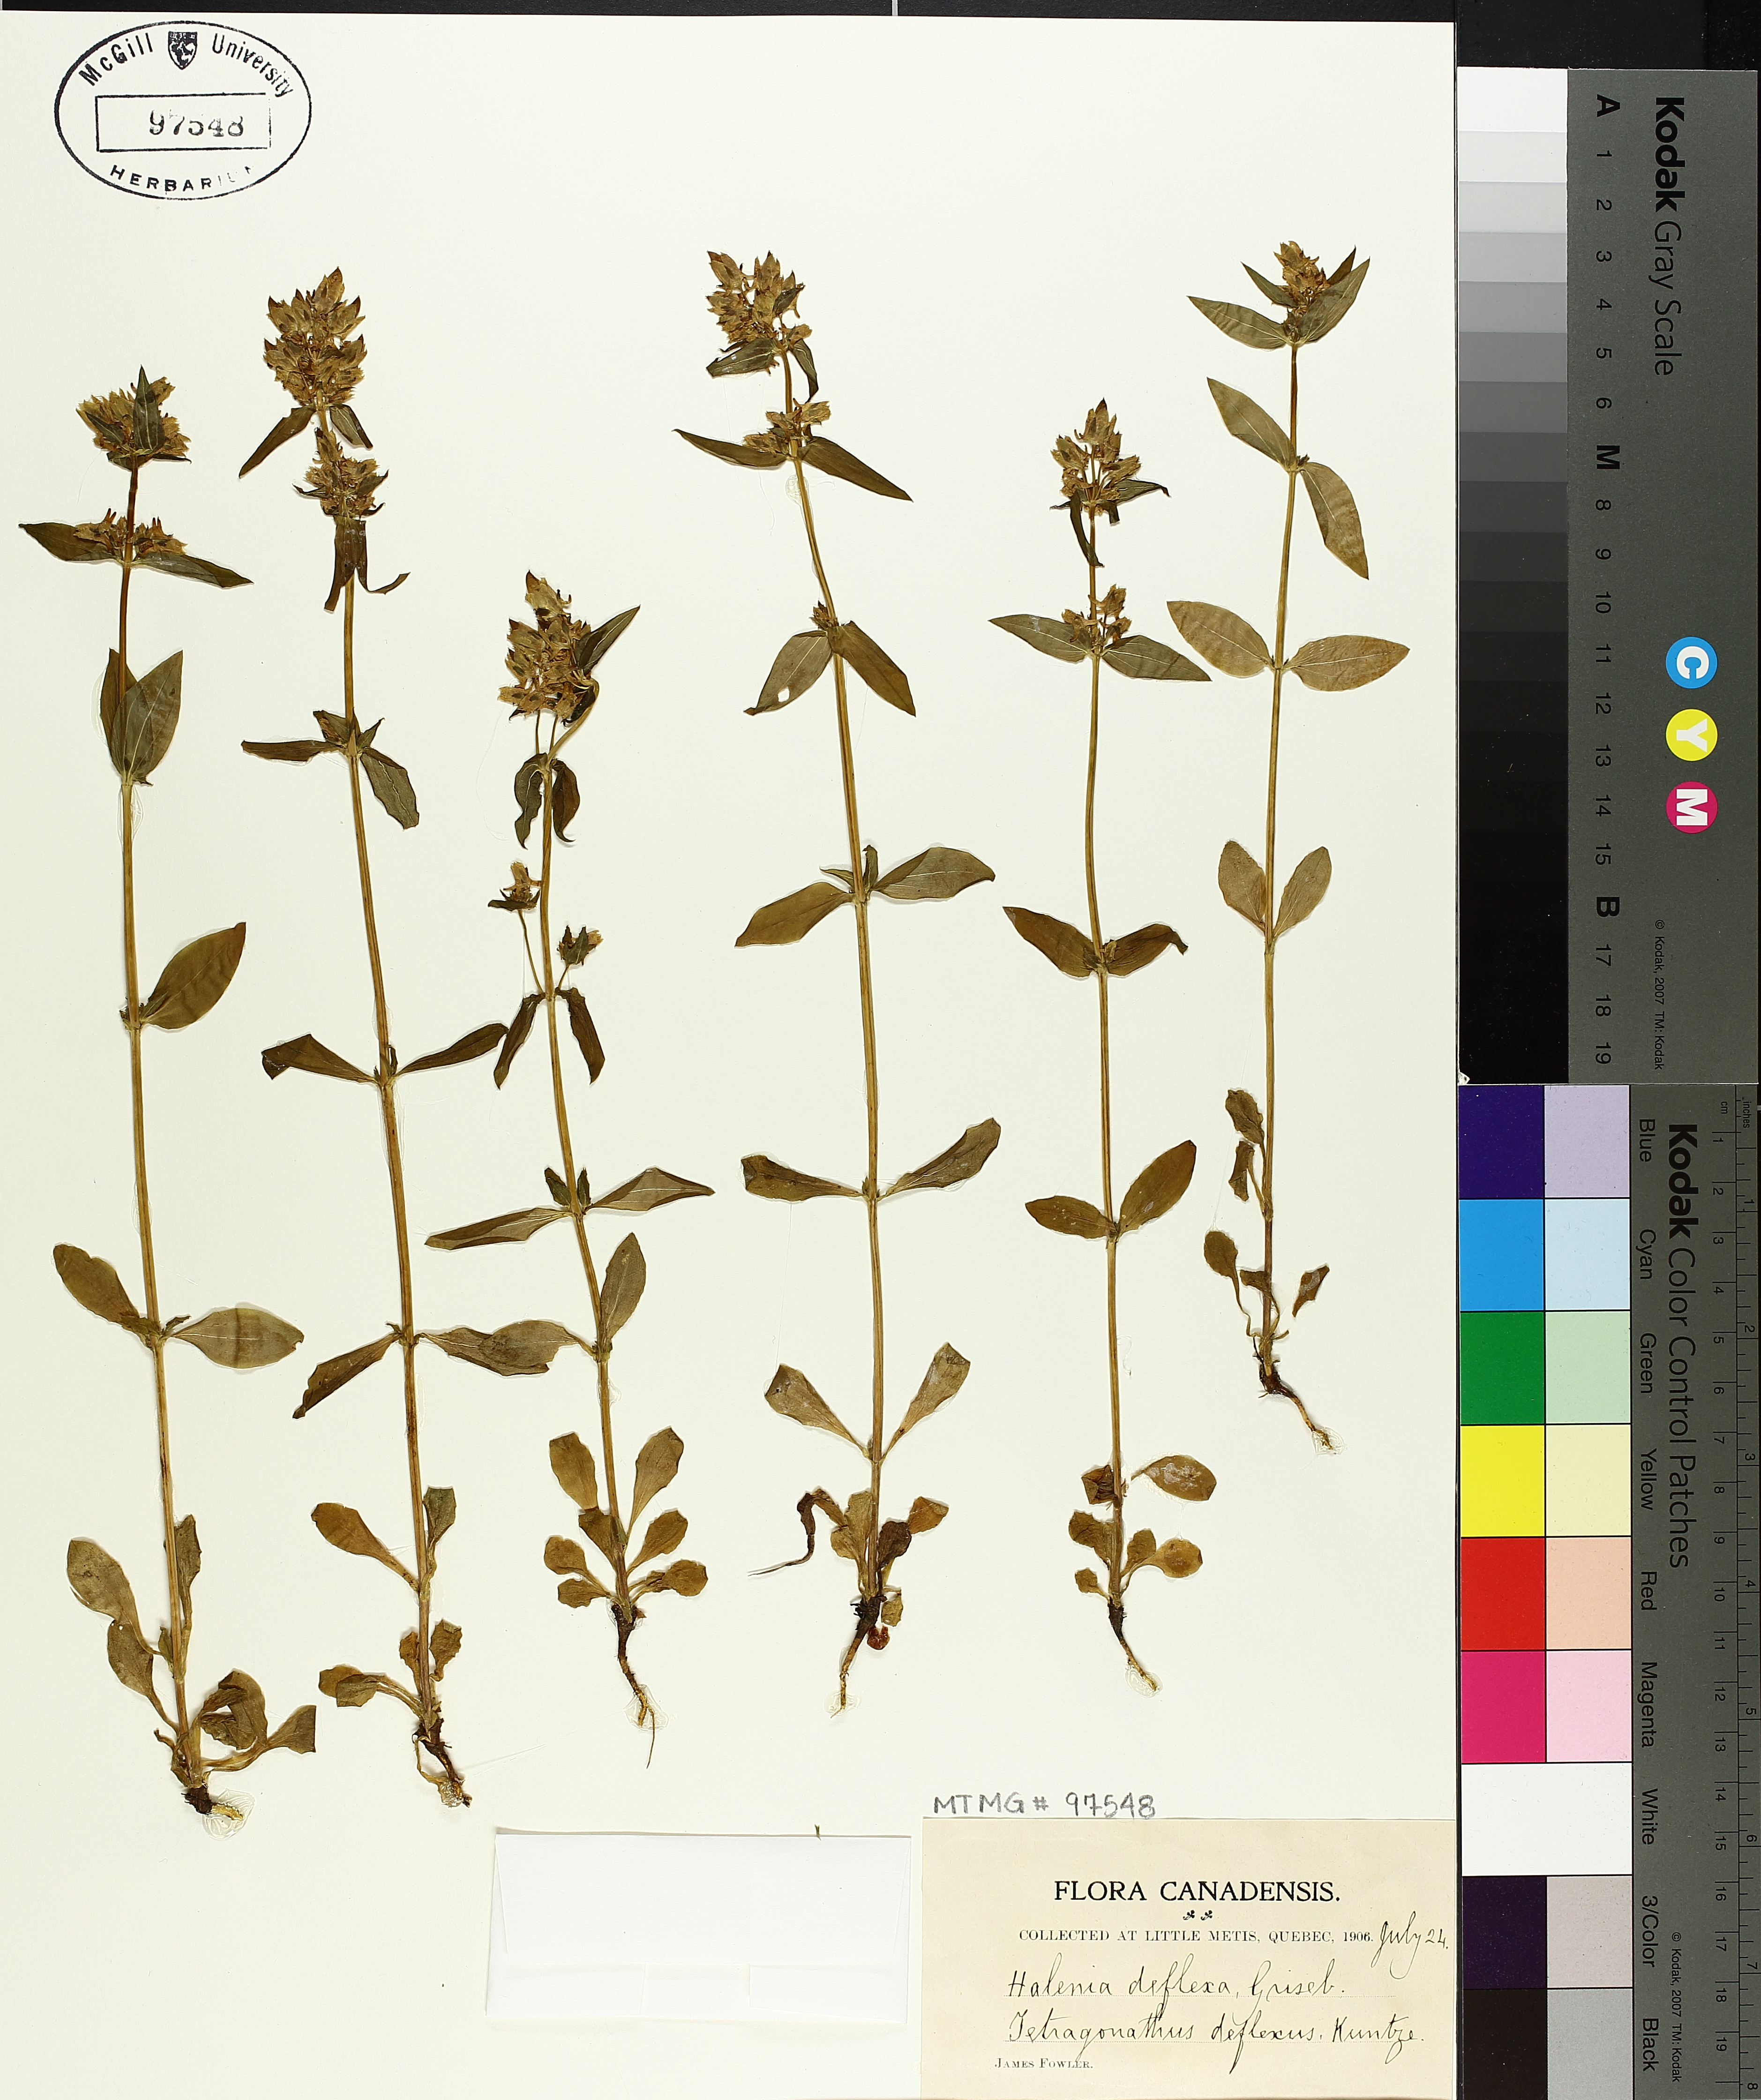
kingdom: Plantae
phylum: Tracheophyta
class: Magnoliopsida
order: Gentianales
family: Gentianaceae
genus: Halenia
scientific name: Halenia deflexa
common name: American spurred gentian
